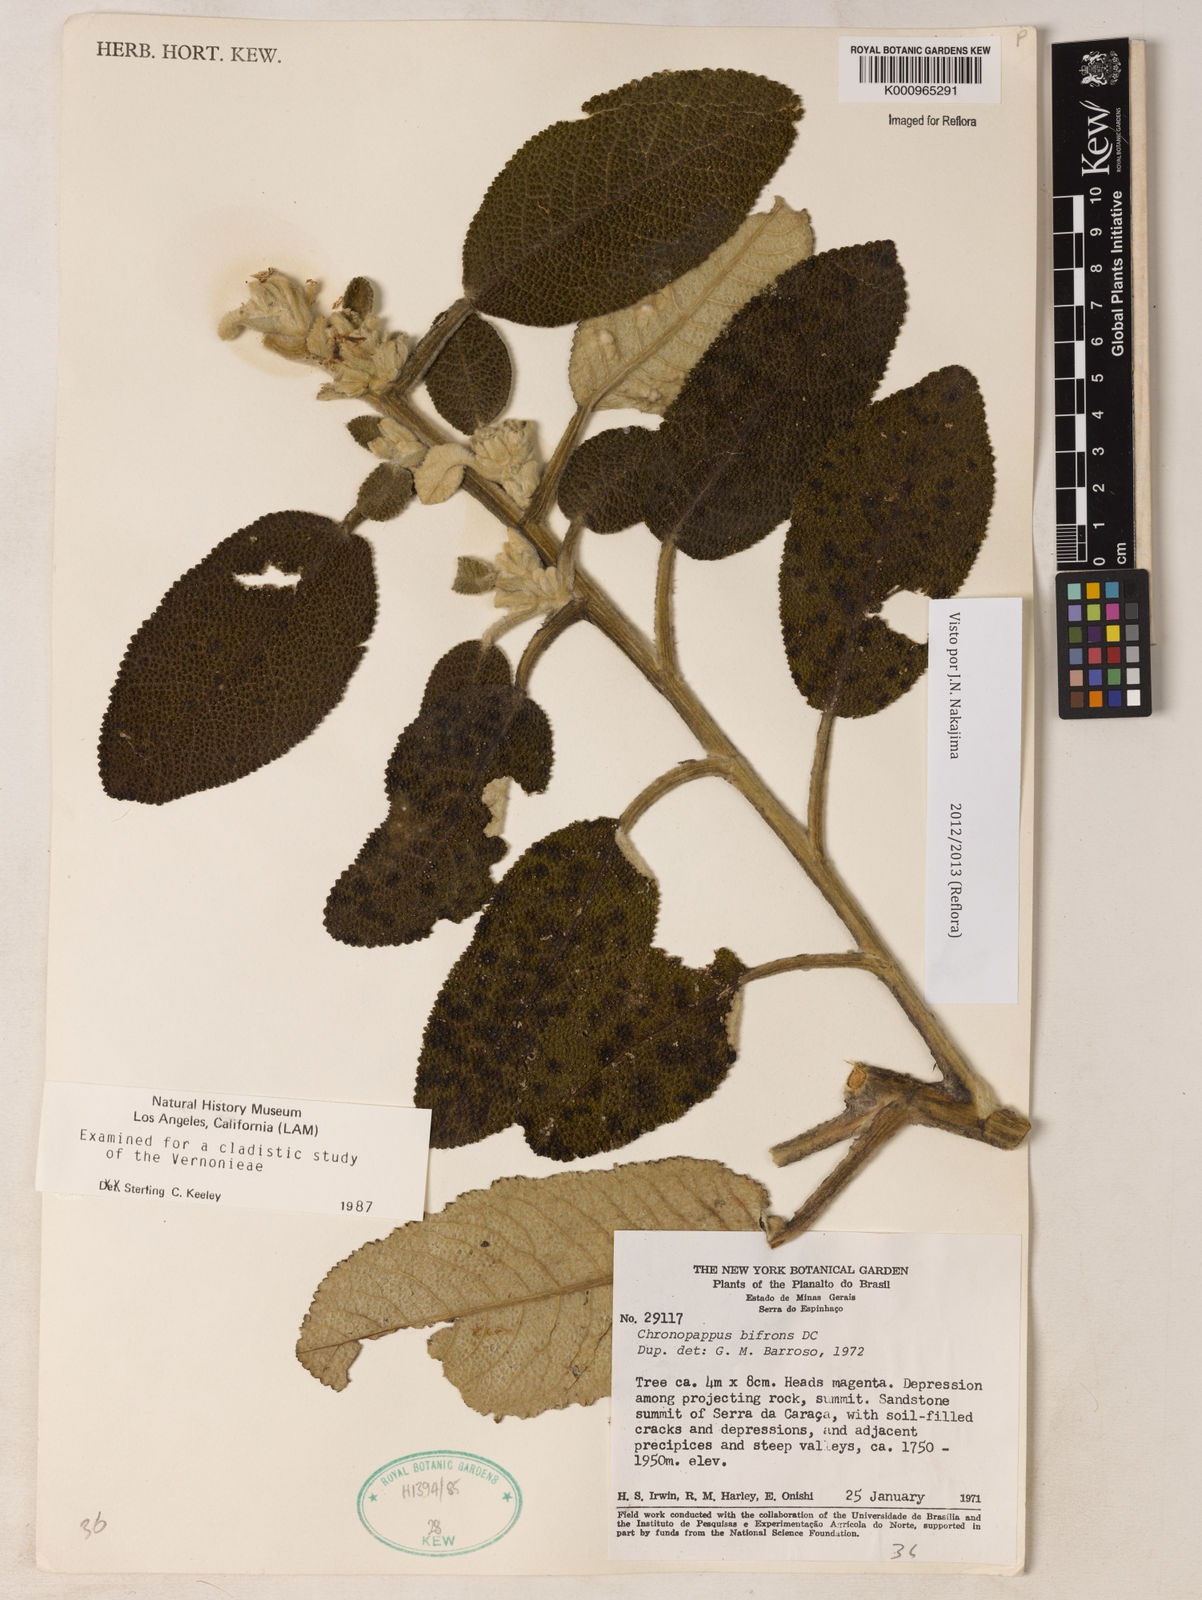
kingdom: Plantae
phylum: Tracheophyta
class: Magnoliopsida
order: Asterales
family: Asteraceae
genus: Chronopappus
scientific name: Chronopappus bifrons
